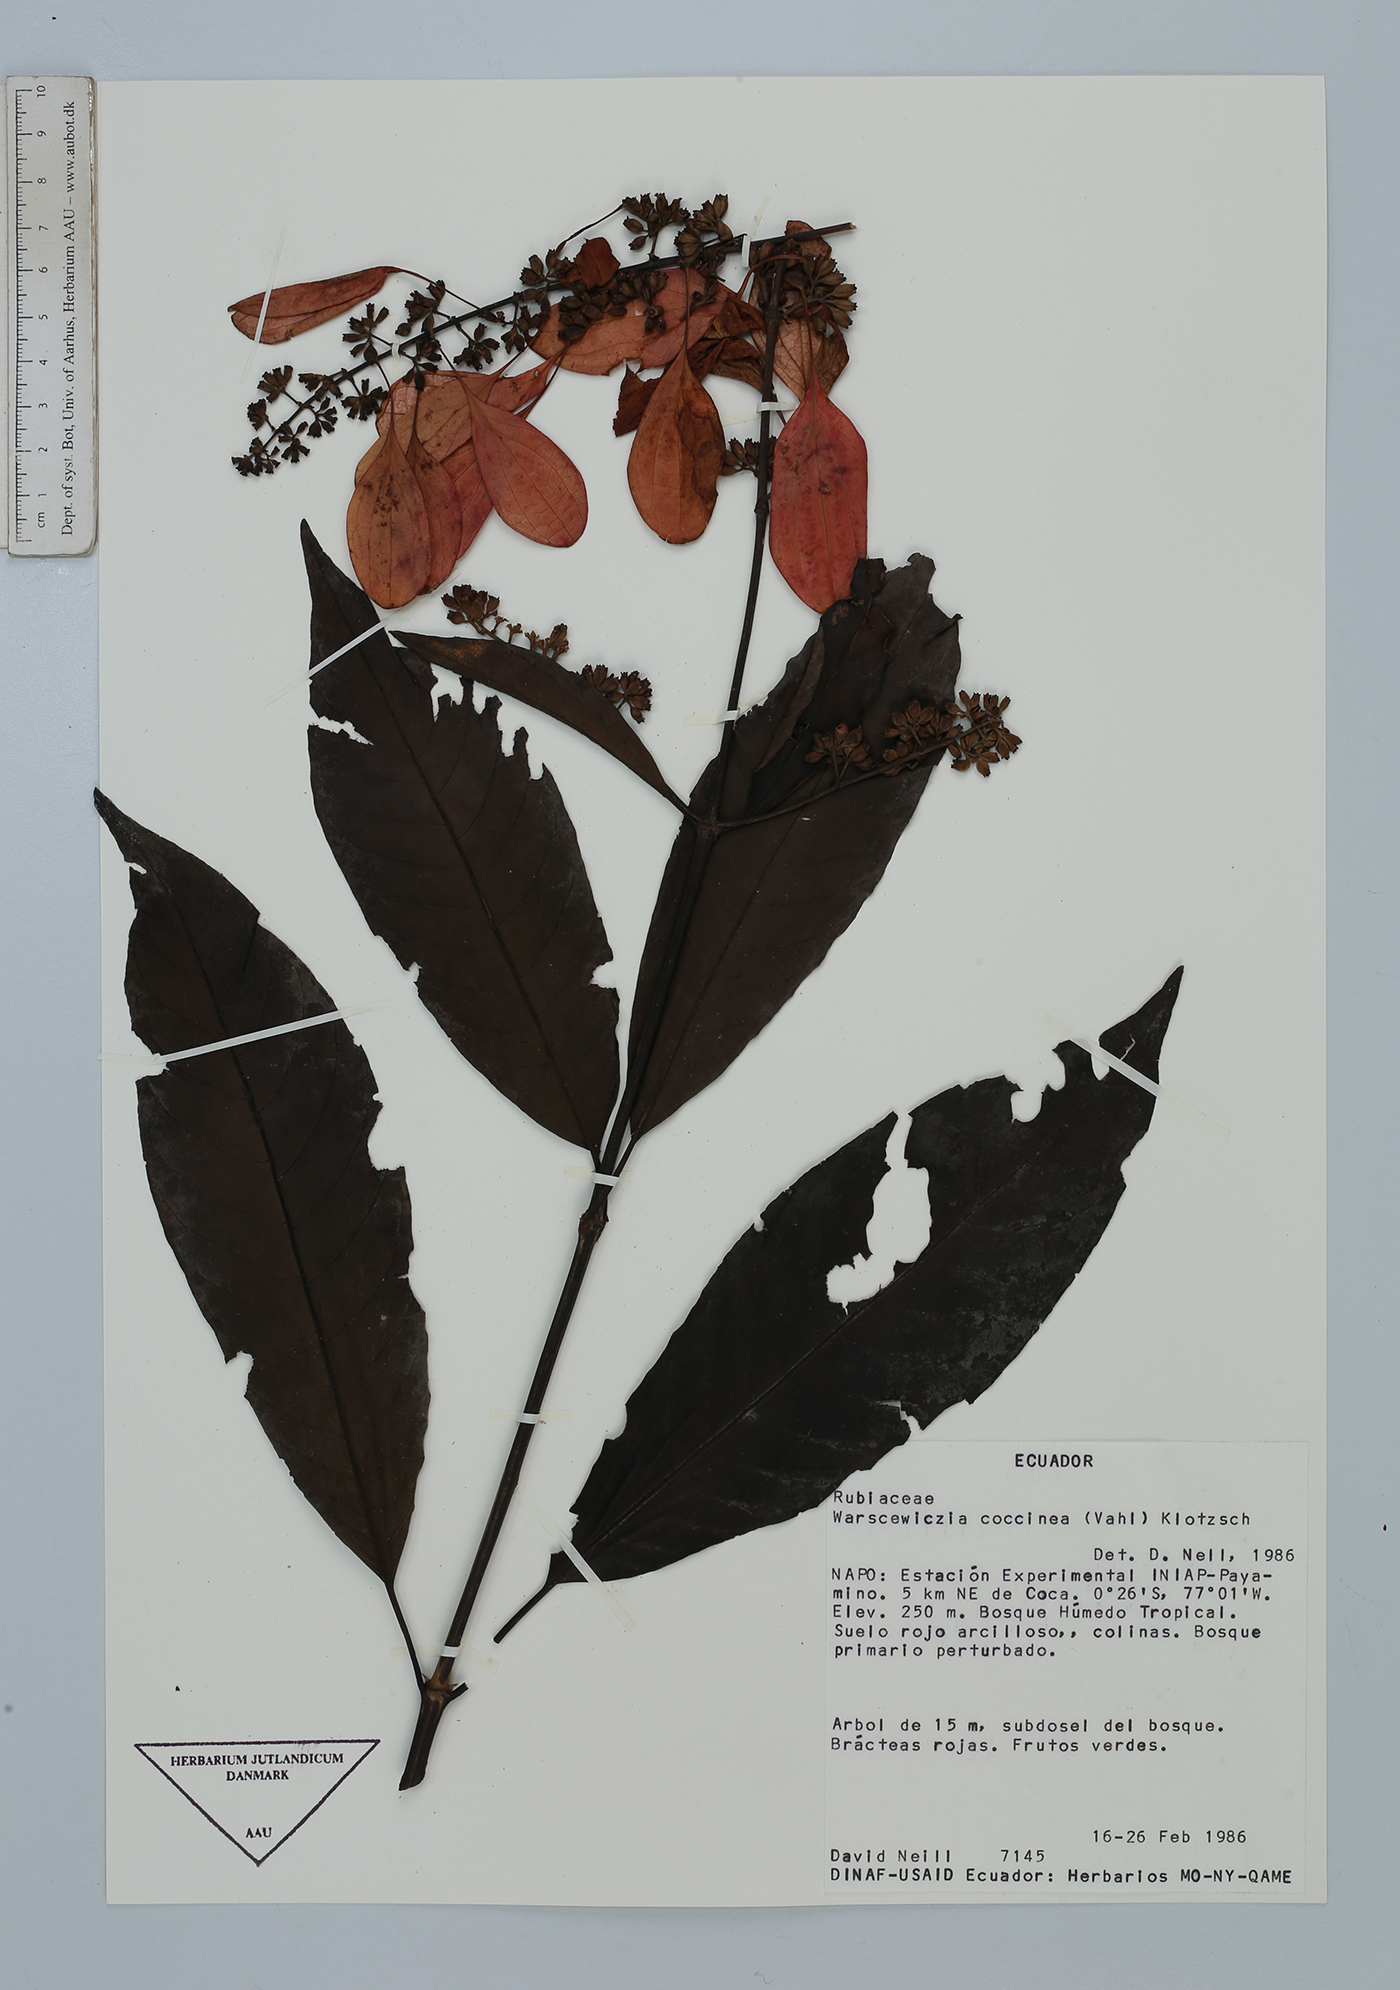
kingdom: Plantae
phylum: Tracheophyta
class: Magnoliopsida
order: Gentianales
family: Rubiaceae
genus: Warszewiczia
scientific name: Warszewiczia coccinea
